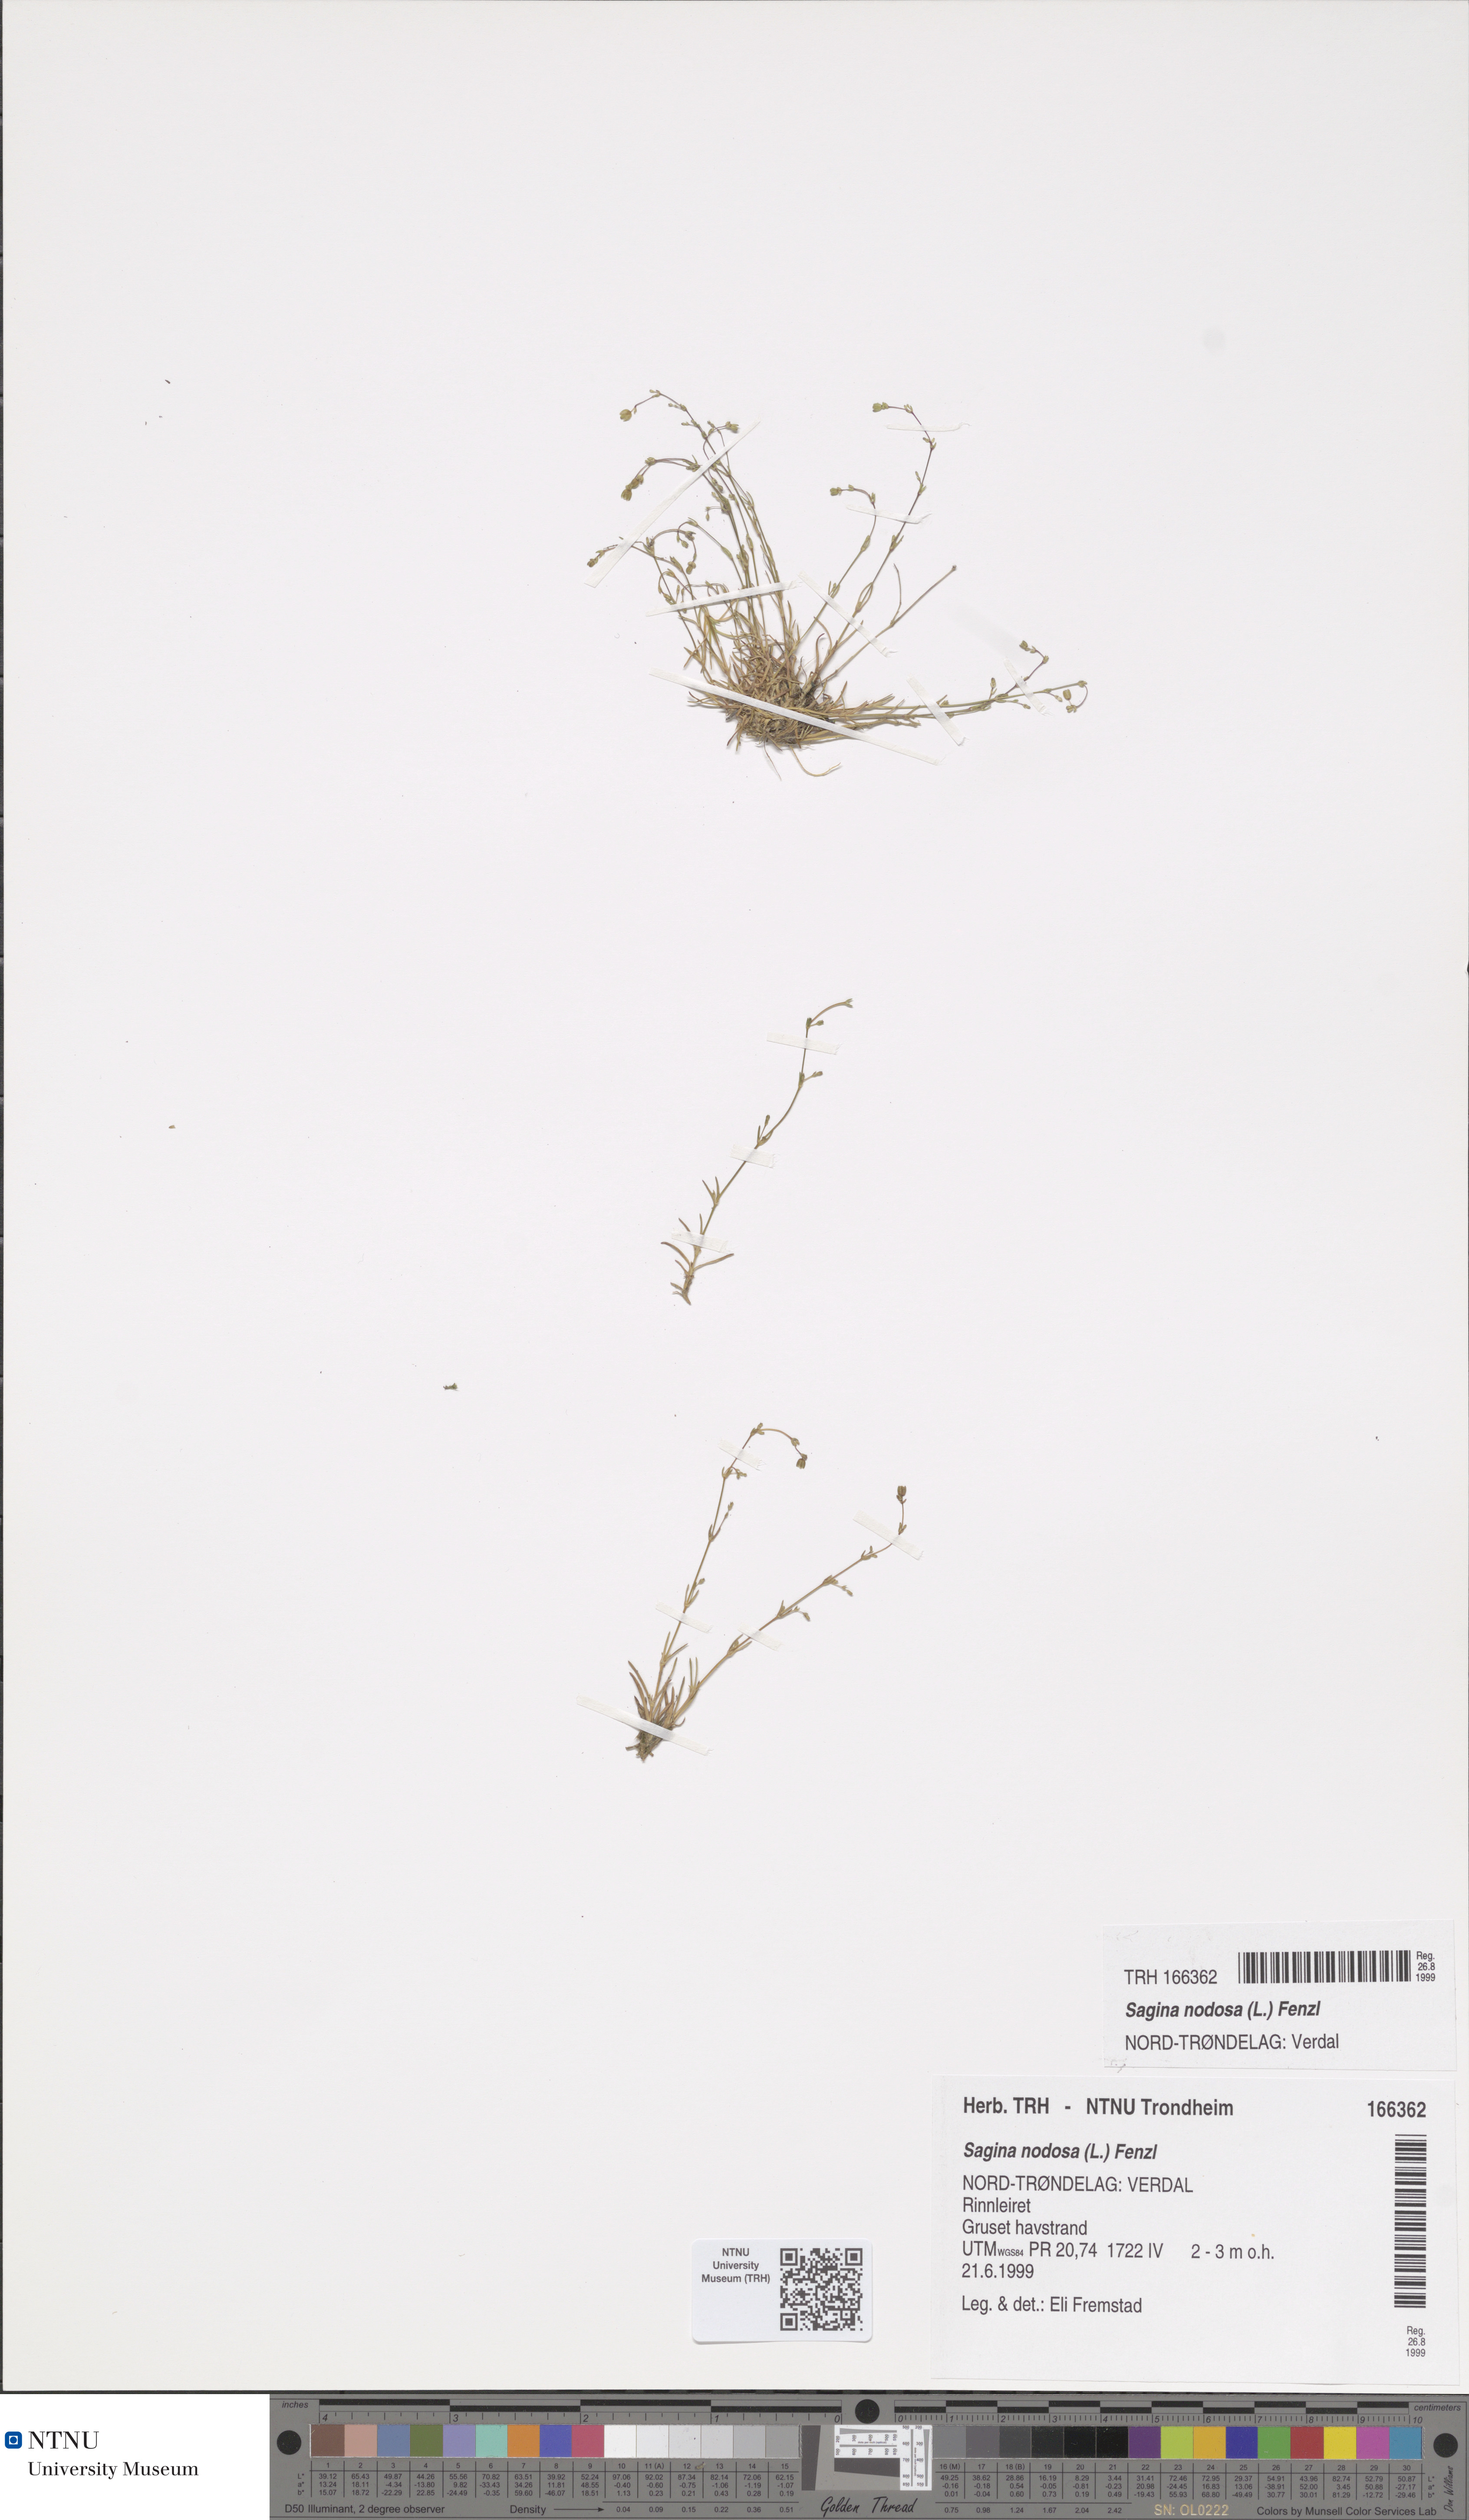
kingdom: Plantae
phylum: Tracheophyta
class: Magnoliopsida
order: Caryophyllales
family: Caryophyllaceae
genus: Sagina
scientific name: Sagina nodosa
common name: Knotted pearlwort
